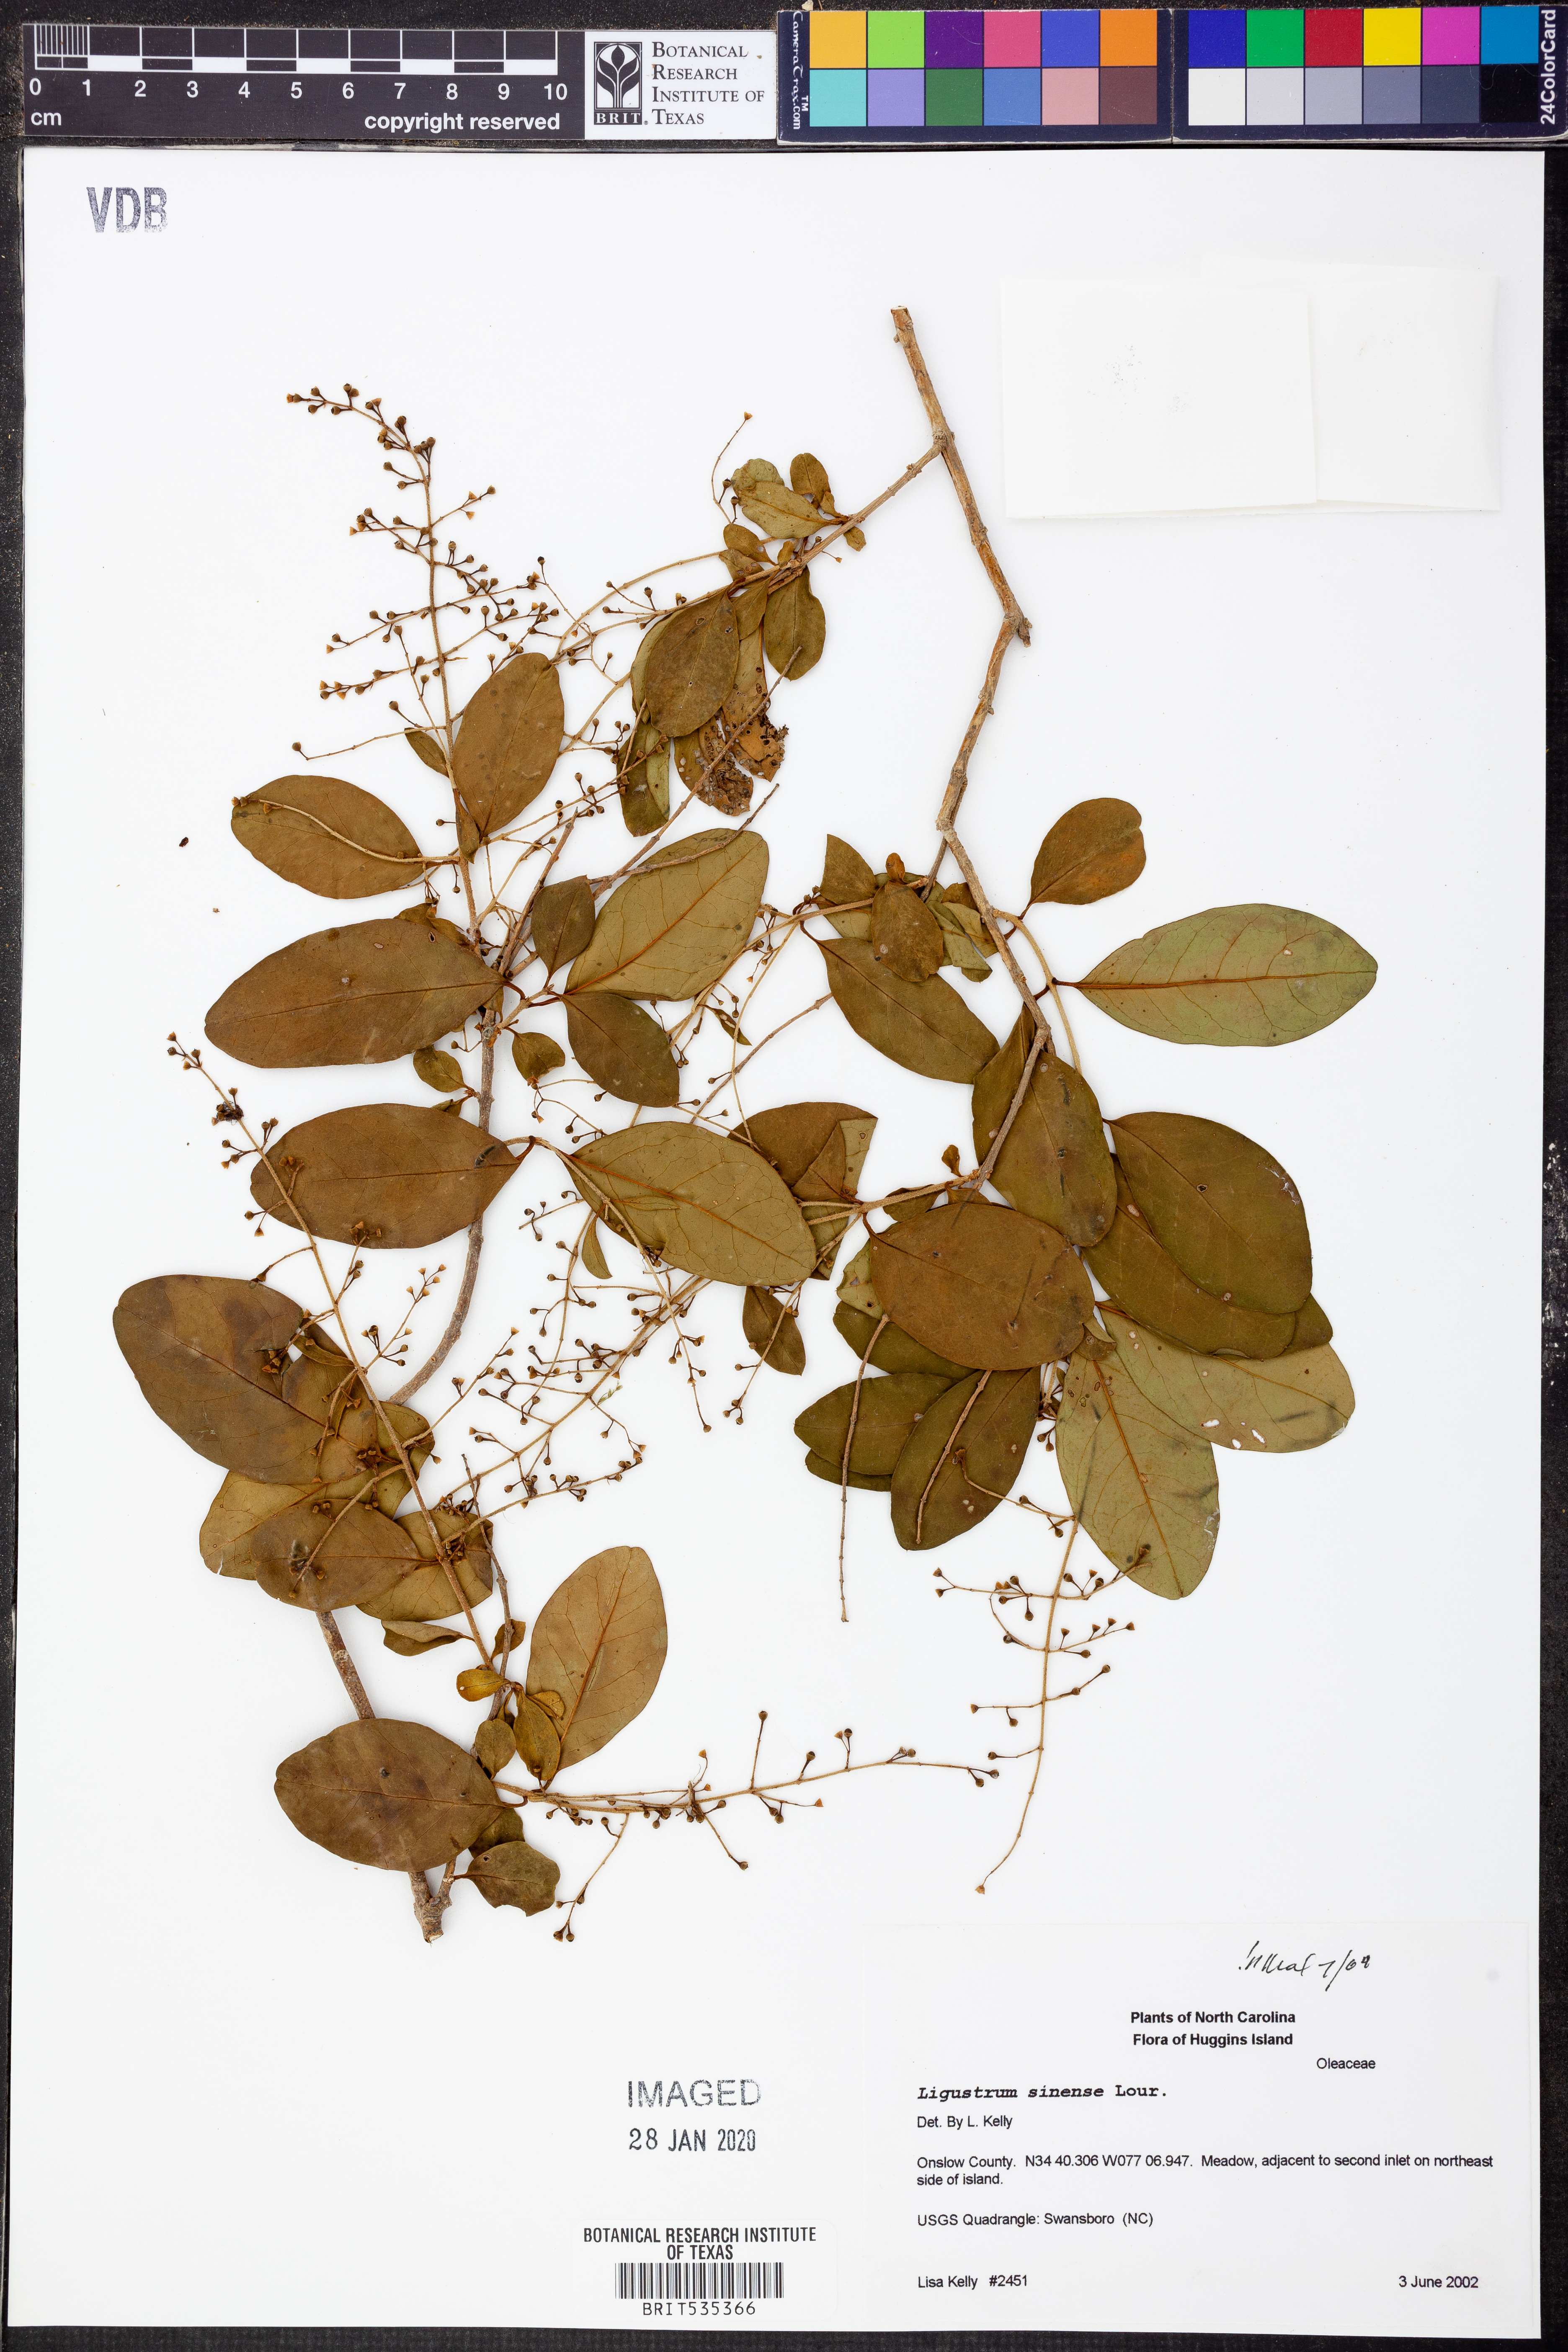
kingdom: Plantae
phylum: Tracheophyta
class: Magnoliopsida
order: Lamiales
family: Oleaceae
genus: Ligustrum
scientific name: Ligustrum sinense
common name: Chinese privet
